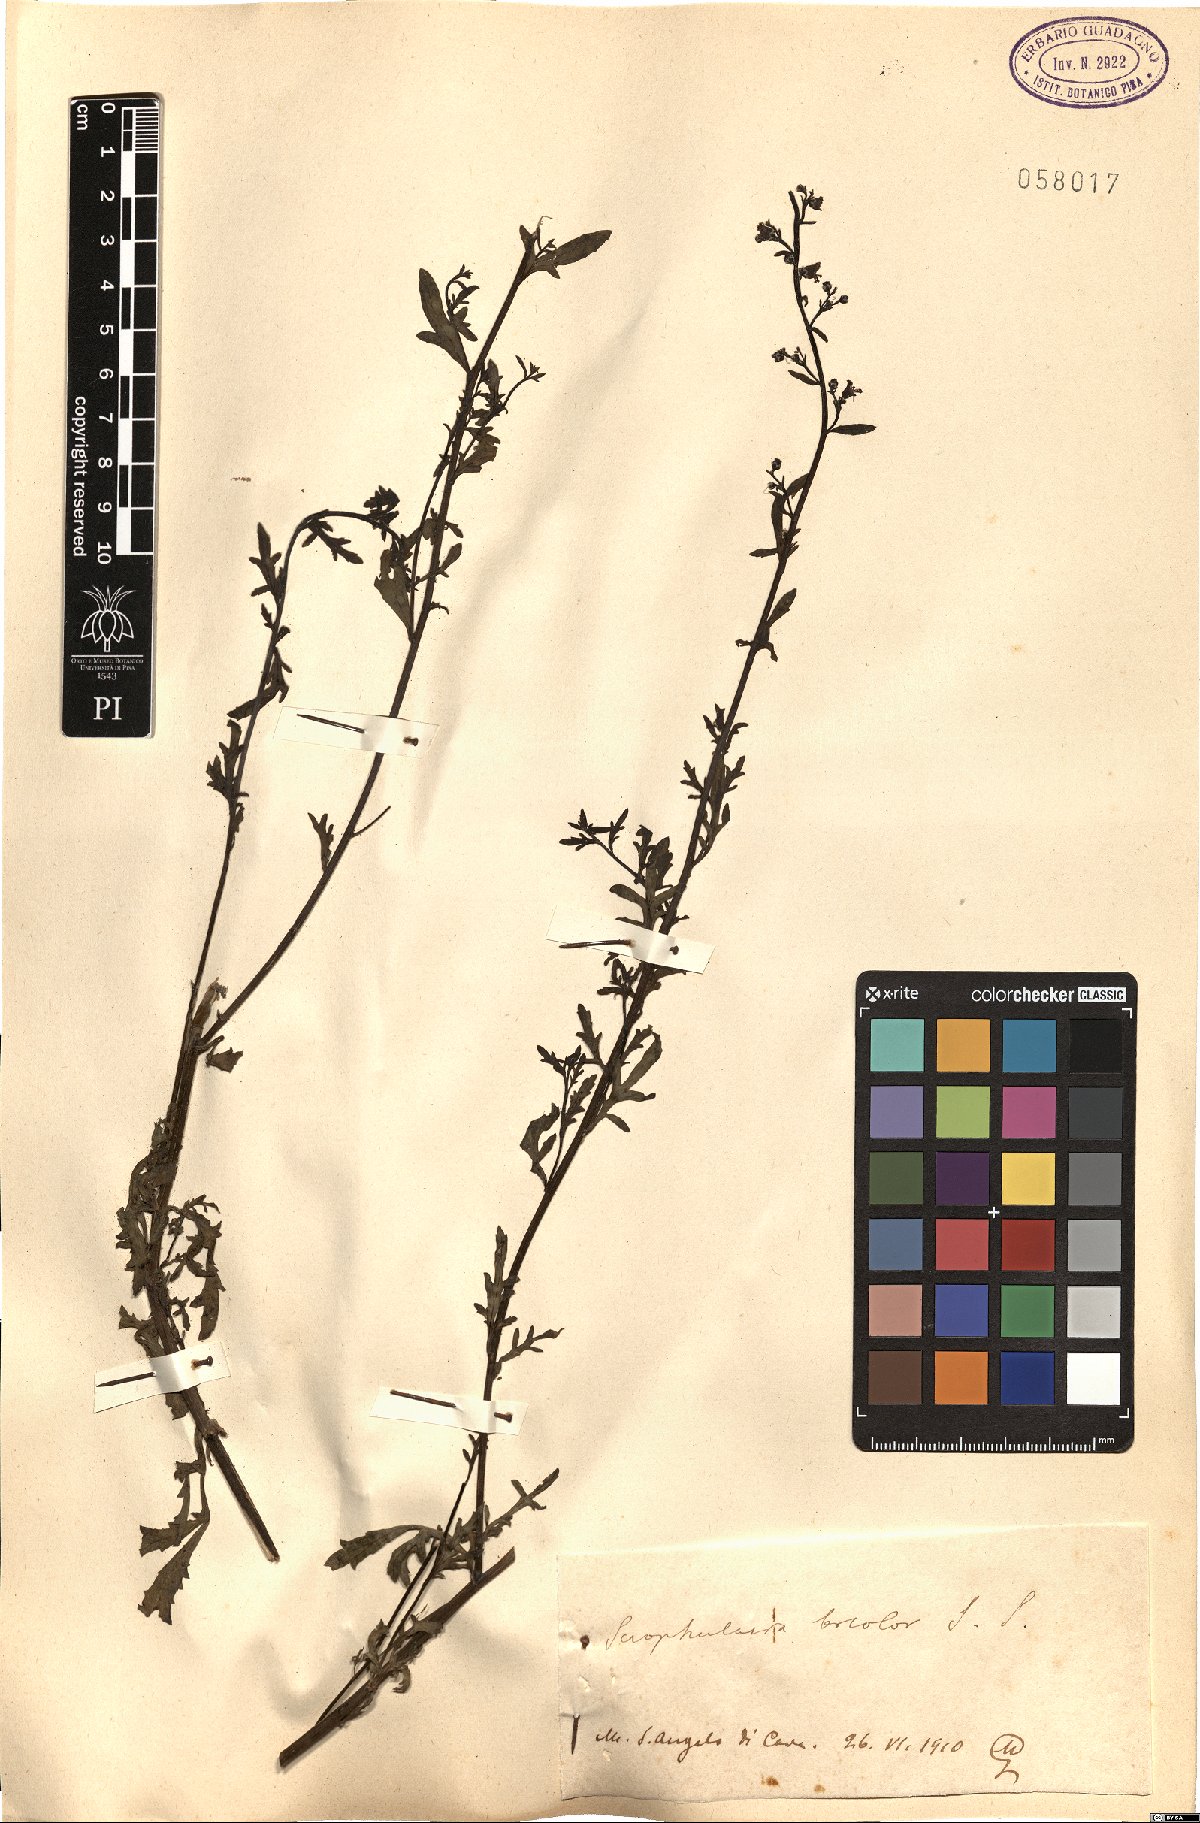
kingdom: Plantae
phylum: Tracheophyta
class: Magnoliopsida
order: Lamiales
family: Scrophulariaceae
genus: Scrophularia
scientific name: Scrophularia canina
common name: French figwort
